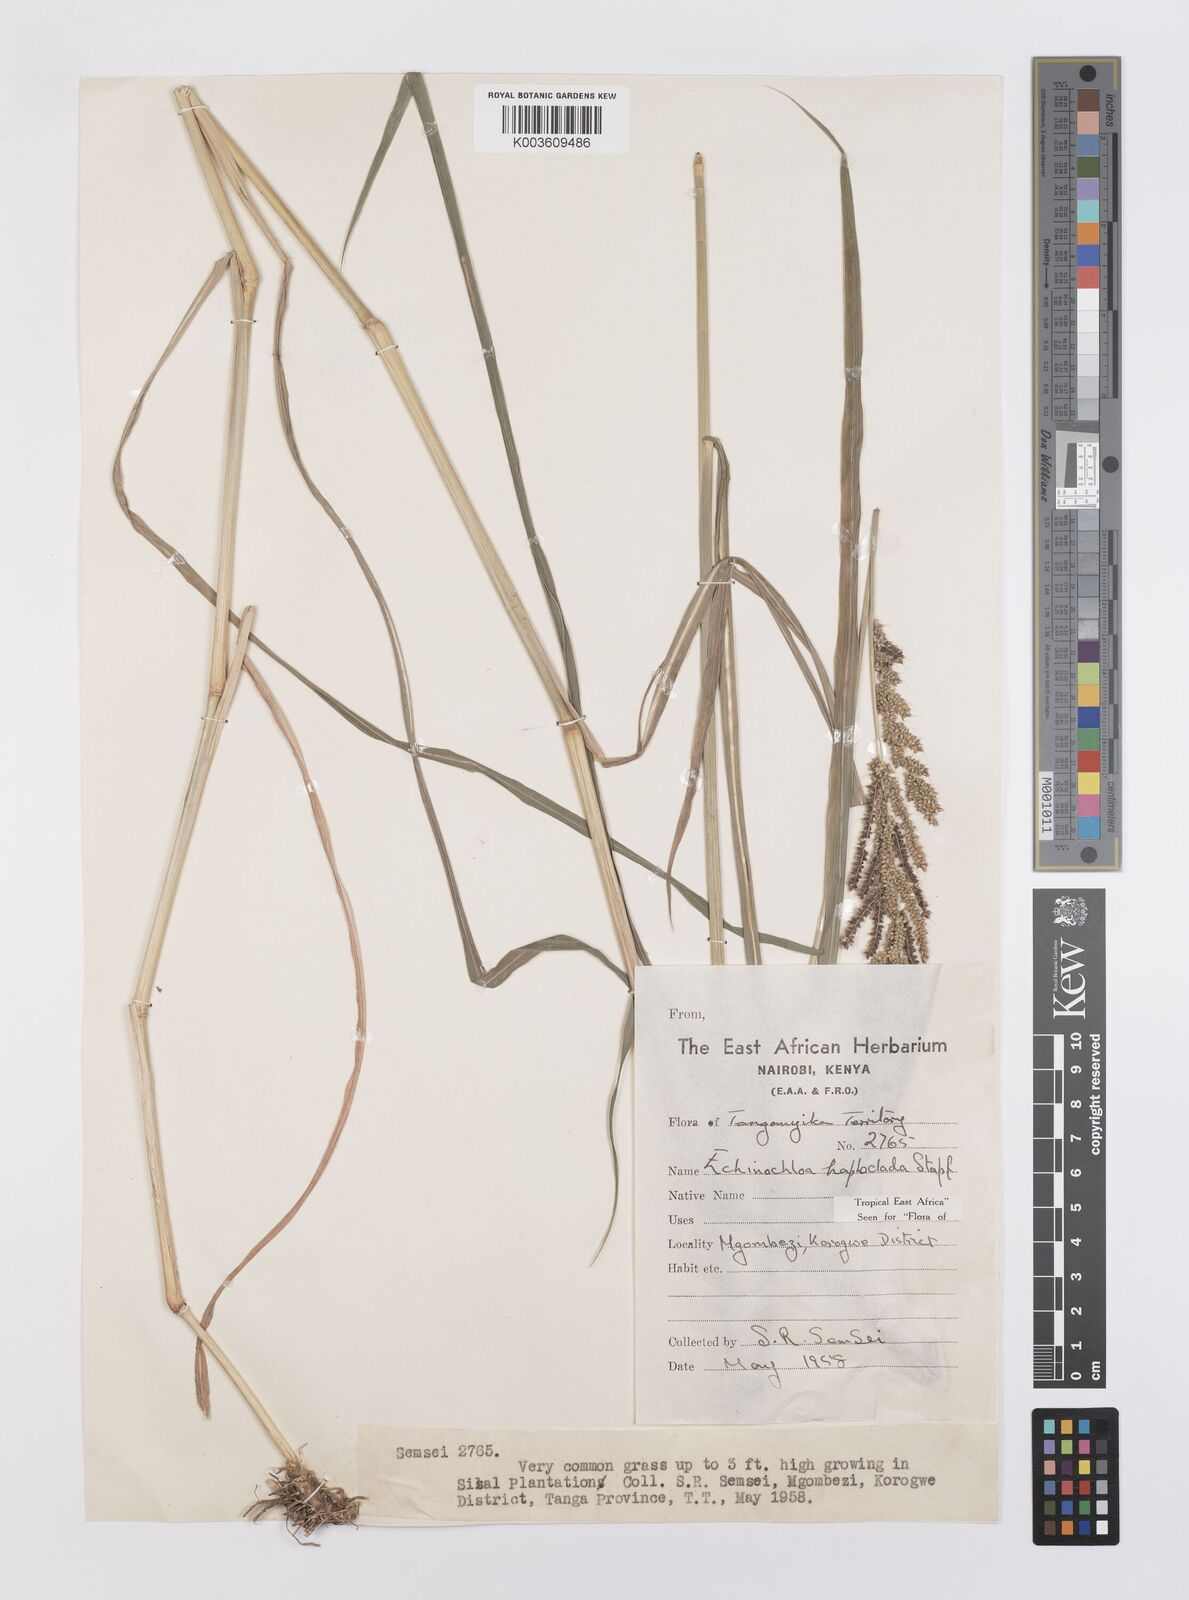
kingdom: Plantae
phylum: Tracheophyta
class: Liliopsida
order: Poales
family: Poaceae
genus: Echinochloa
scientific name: Echinochloa haploclada
